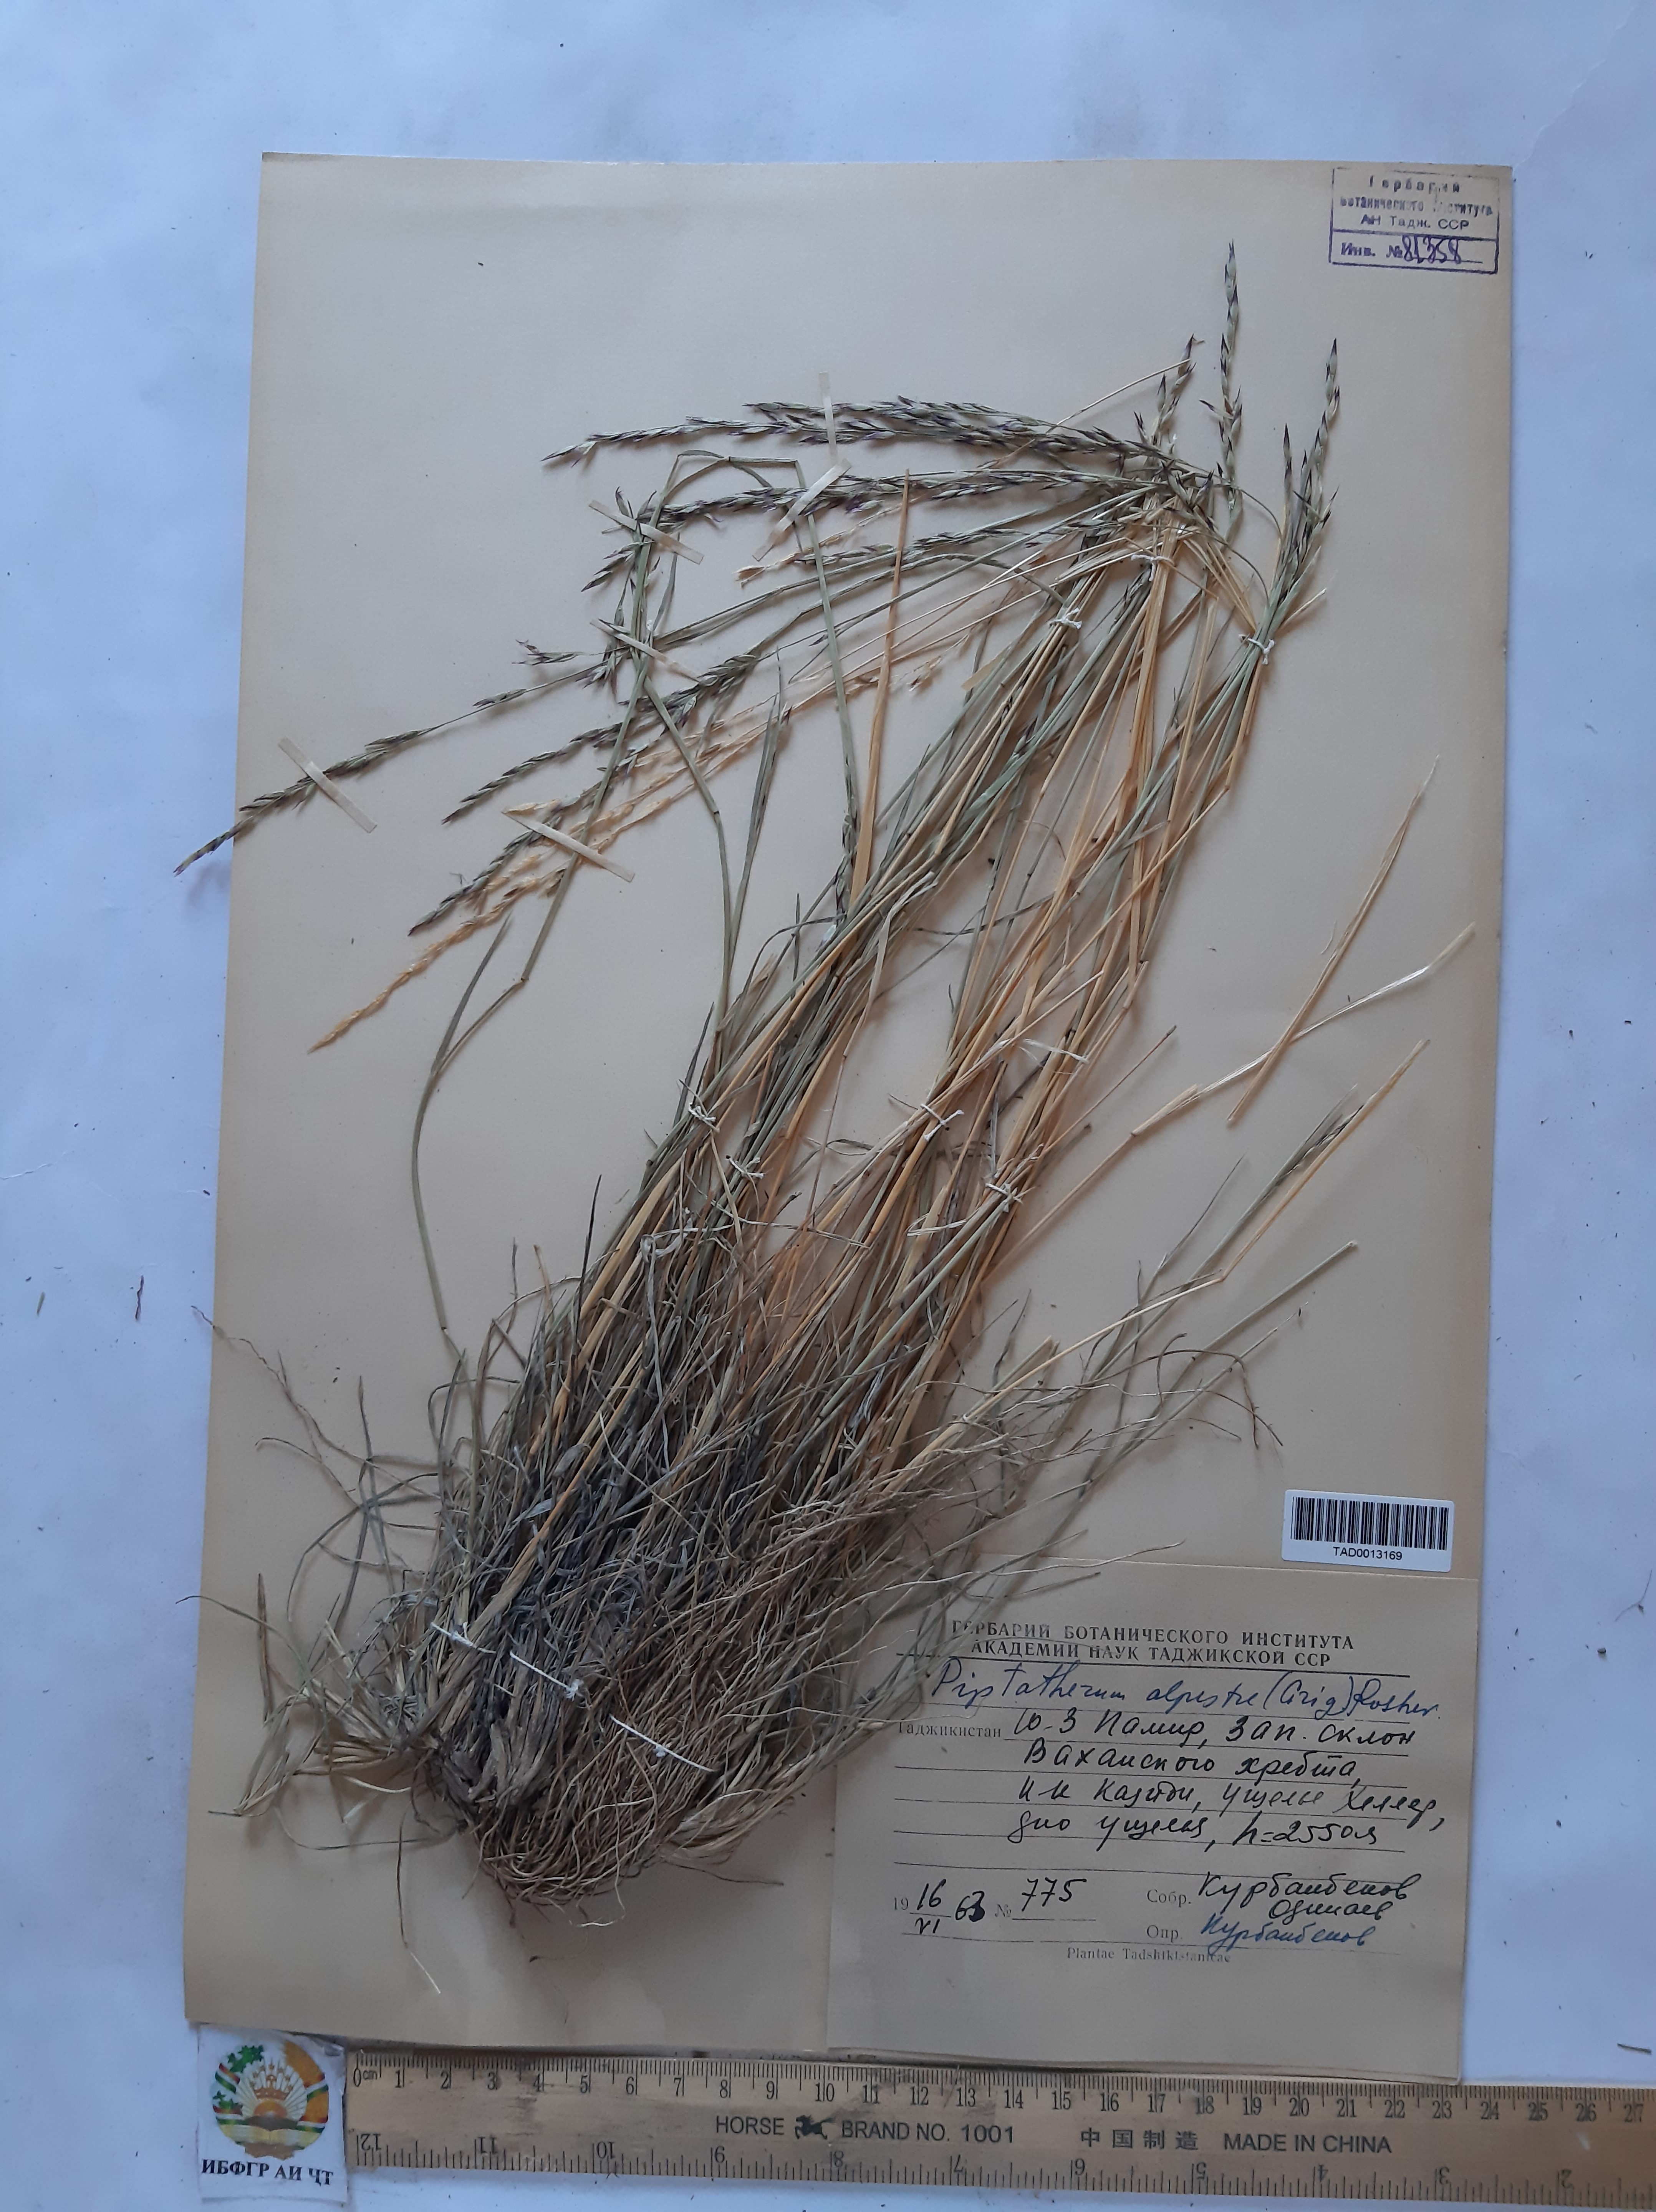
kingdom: Plantae
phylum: Tracheophyta
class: Liliopsida
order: Poales
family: Poaceae
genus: Piptatherum
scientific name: Piptatherum alpestre
